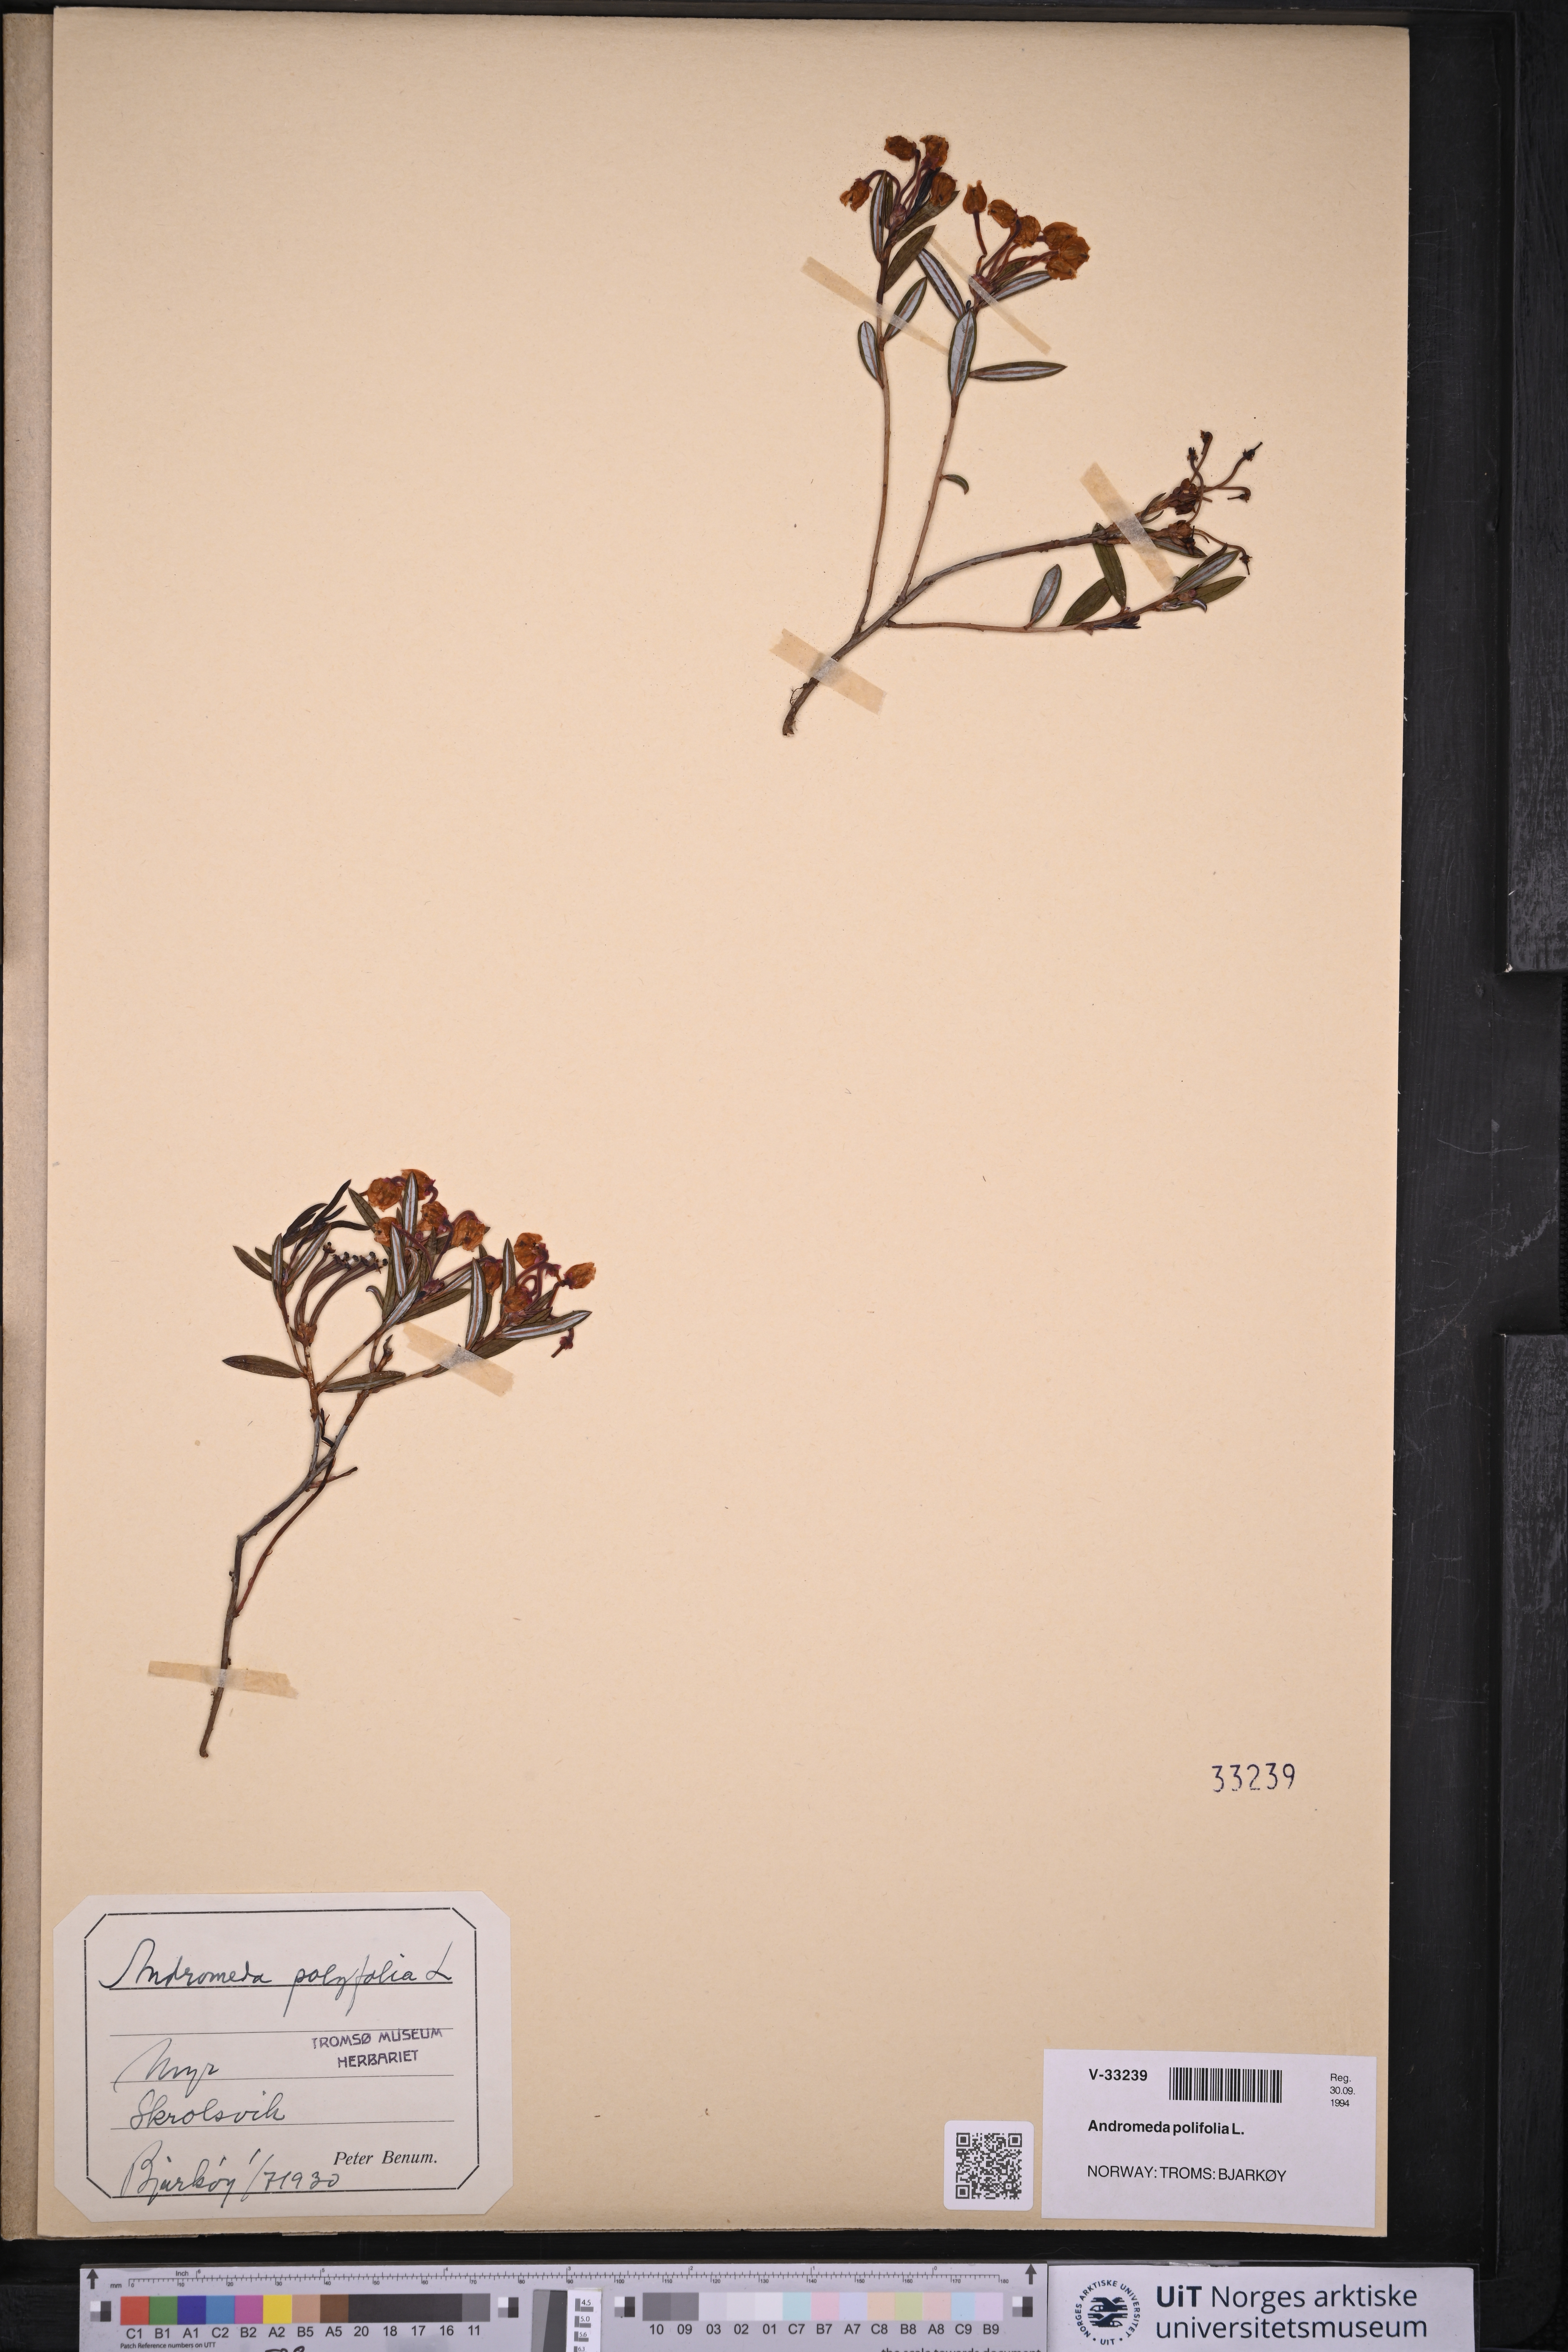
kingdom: Plantae
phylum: Tracheophyta
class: Magnoliopsida
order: Ericales
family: Ericaceae
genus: Andromeda
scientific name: Andromeda polifolia
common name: Bog-rosemary
